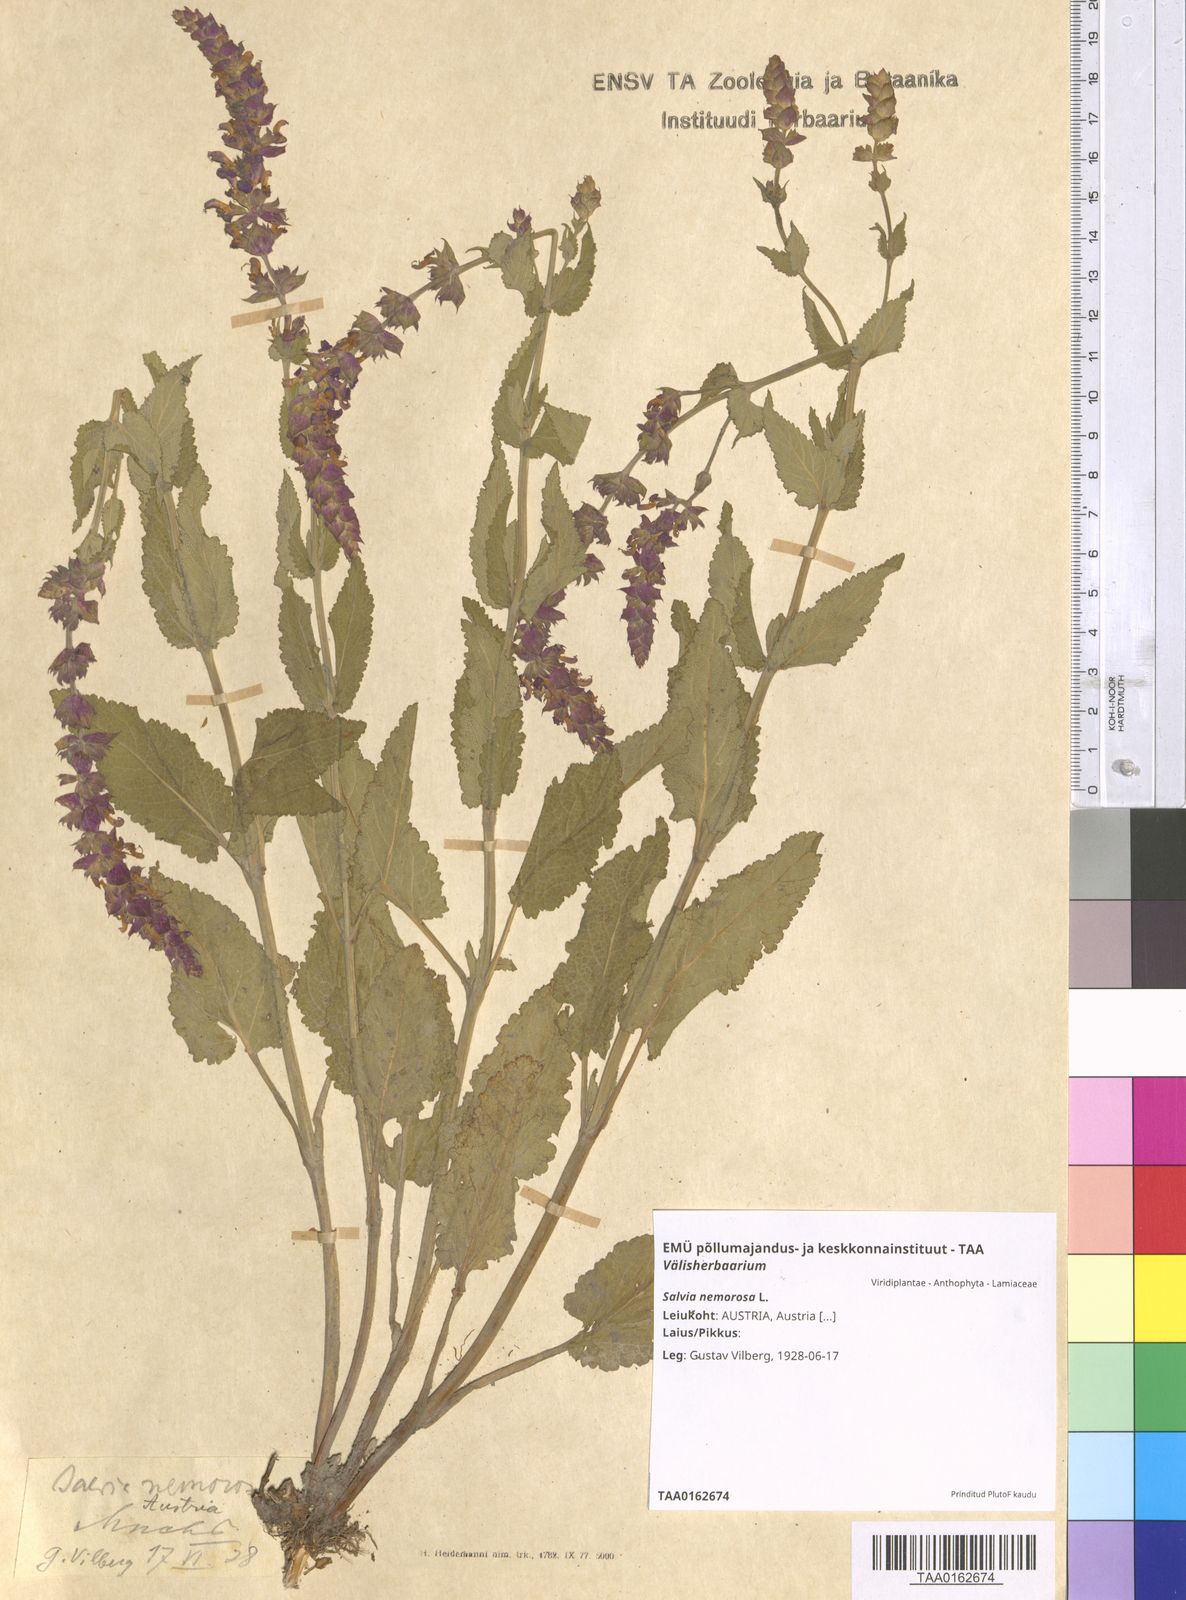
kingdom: Plantae
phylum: Tracheophyta
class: Magnoliopsida
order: Lamiales
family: Lamiaceae
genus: Salvia
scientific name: Salvia nemorosa
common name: Balkan clary
